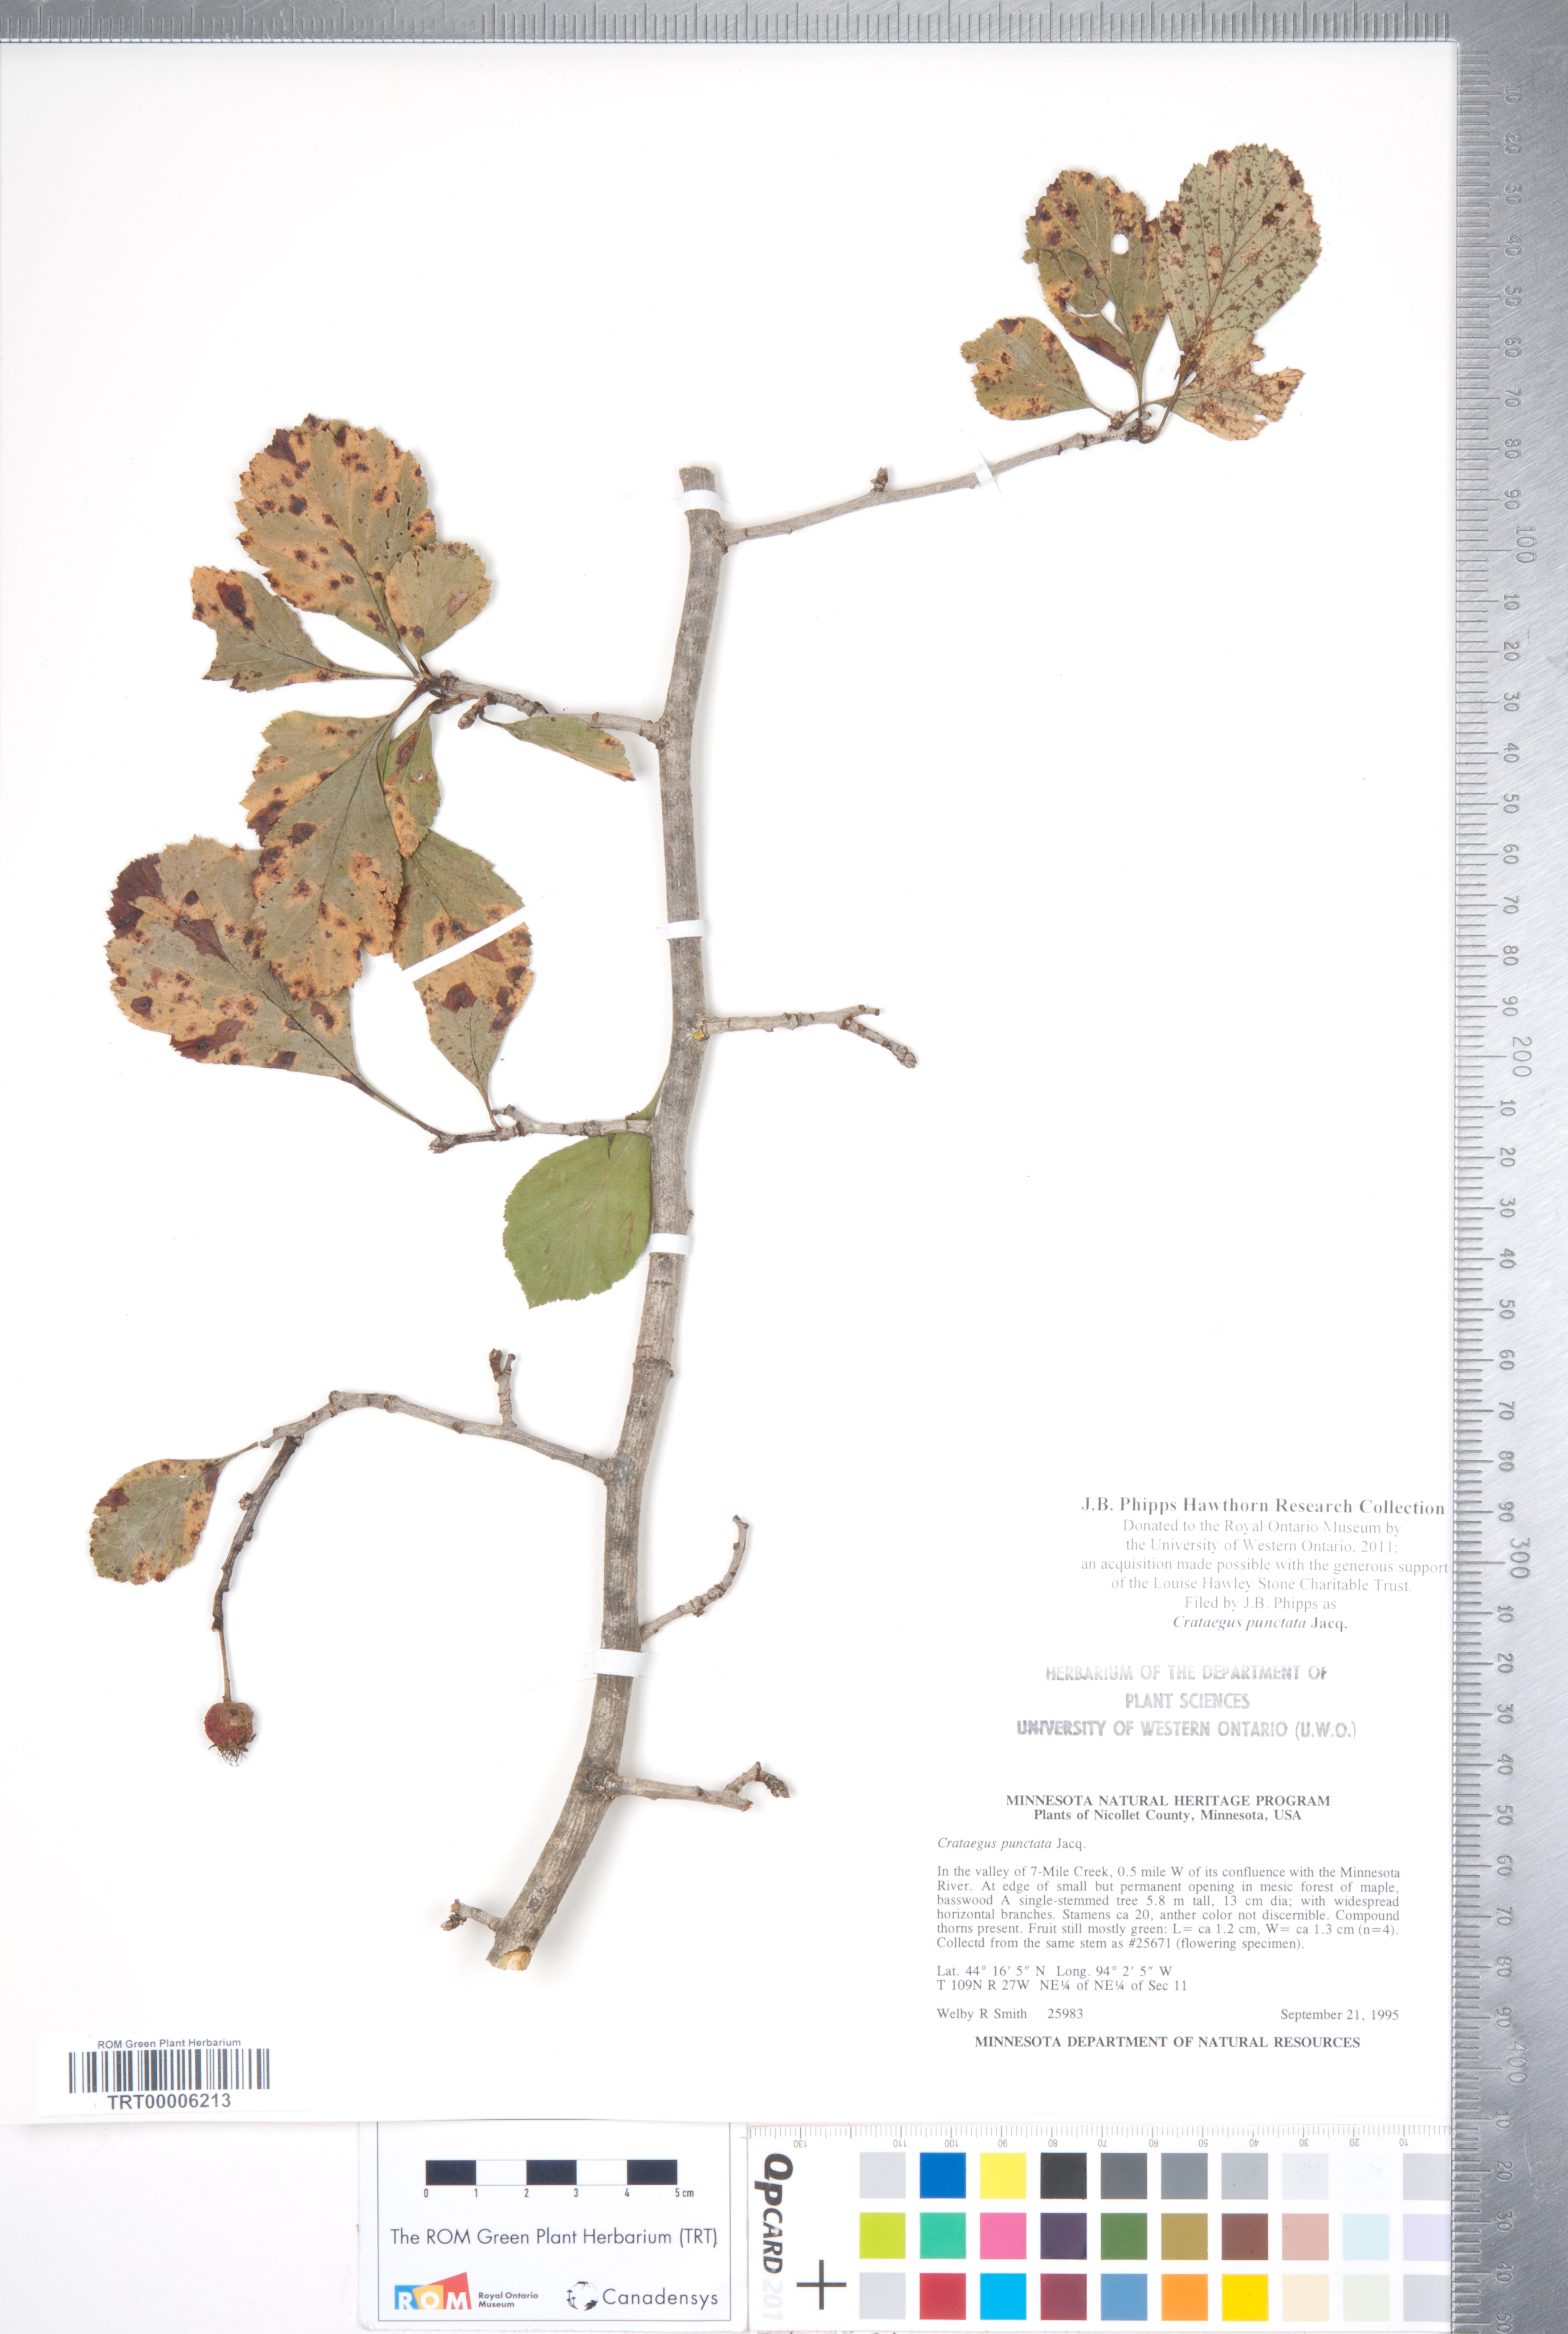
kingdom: Plantae
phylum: Tracheophyta
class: Magnoliopsida
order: Rosales
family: Rosaceae
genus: Crataegus
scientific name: Crataegus punctata
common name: Dotted hawthorn
